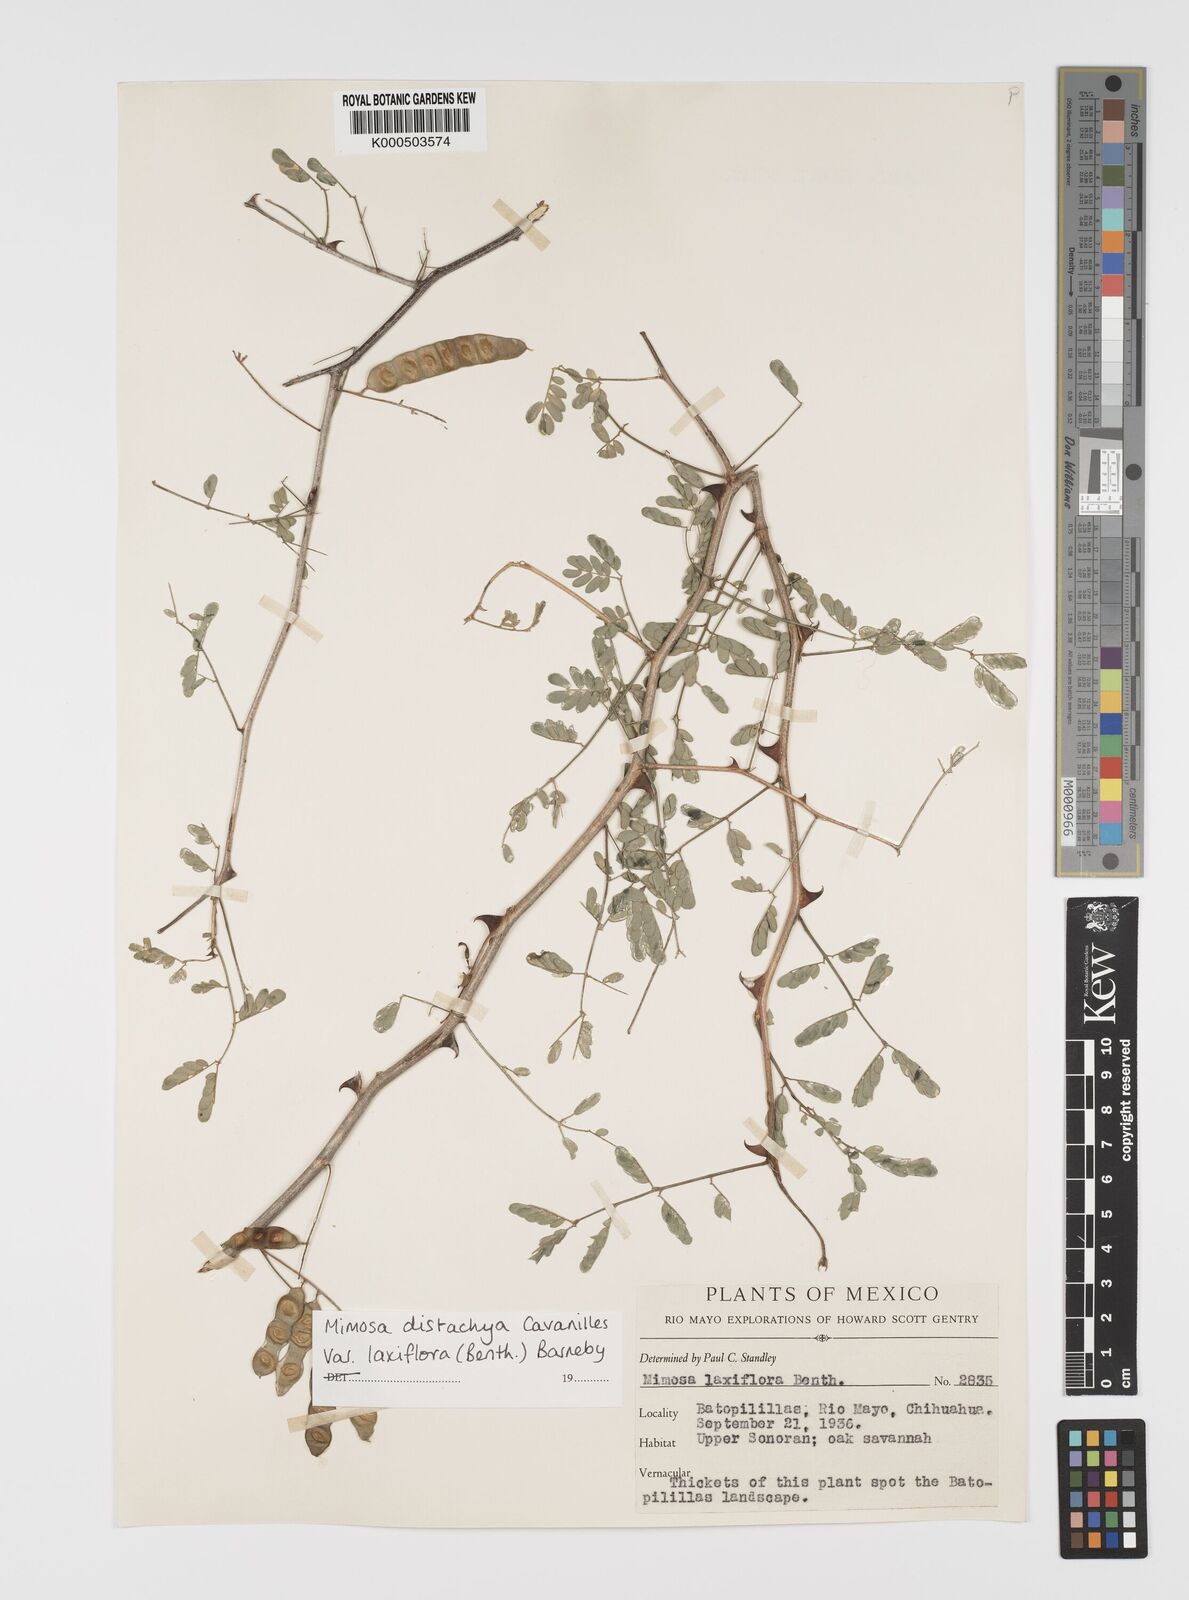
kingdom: Plantae
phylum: Tracheophyta
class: Magnoliopsida
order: Fabales
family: Fabaceae
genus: Mimosa
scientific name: Mimosa distachya
